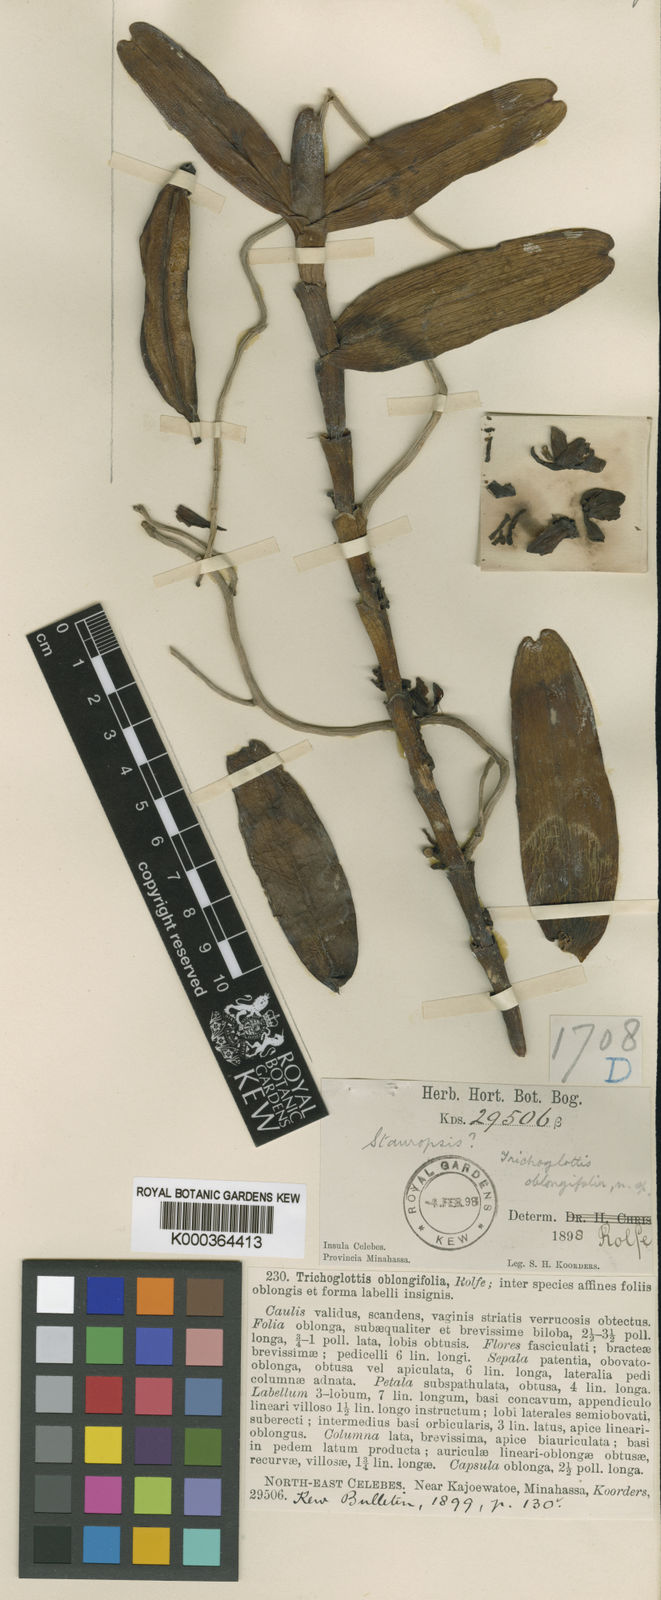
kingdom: Plantae
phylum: Tracheophyta
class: Liliopsida
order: Asparagales
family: Orchidaceae
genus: Trichoglottis
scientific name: Trichoglottis geminata
